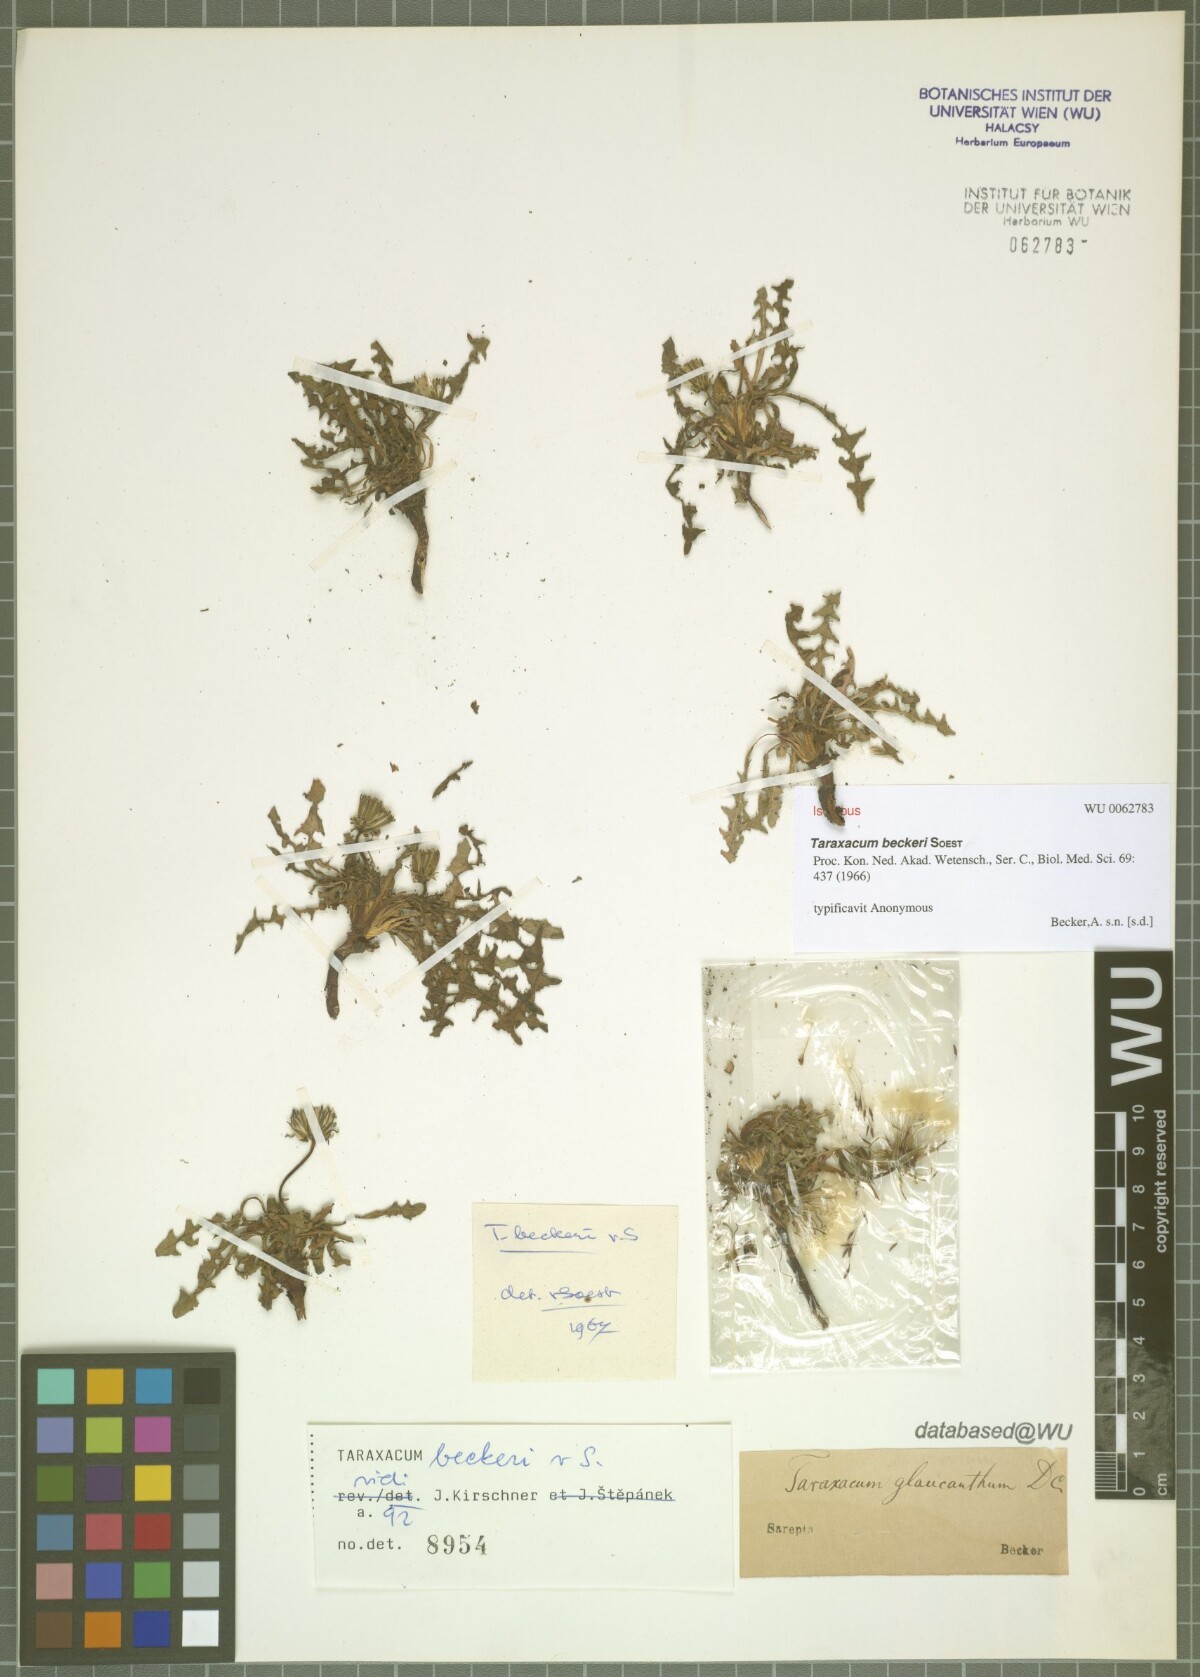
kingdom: Plantae
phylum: Tracheophyta
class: Magnoliopsida
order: Asterales
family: Asteraceae
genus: Taraxacum
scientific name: Taraxacum beckeri
